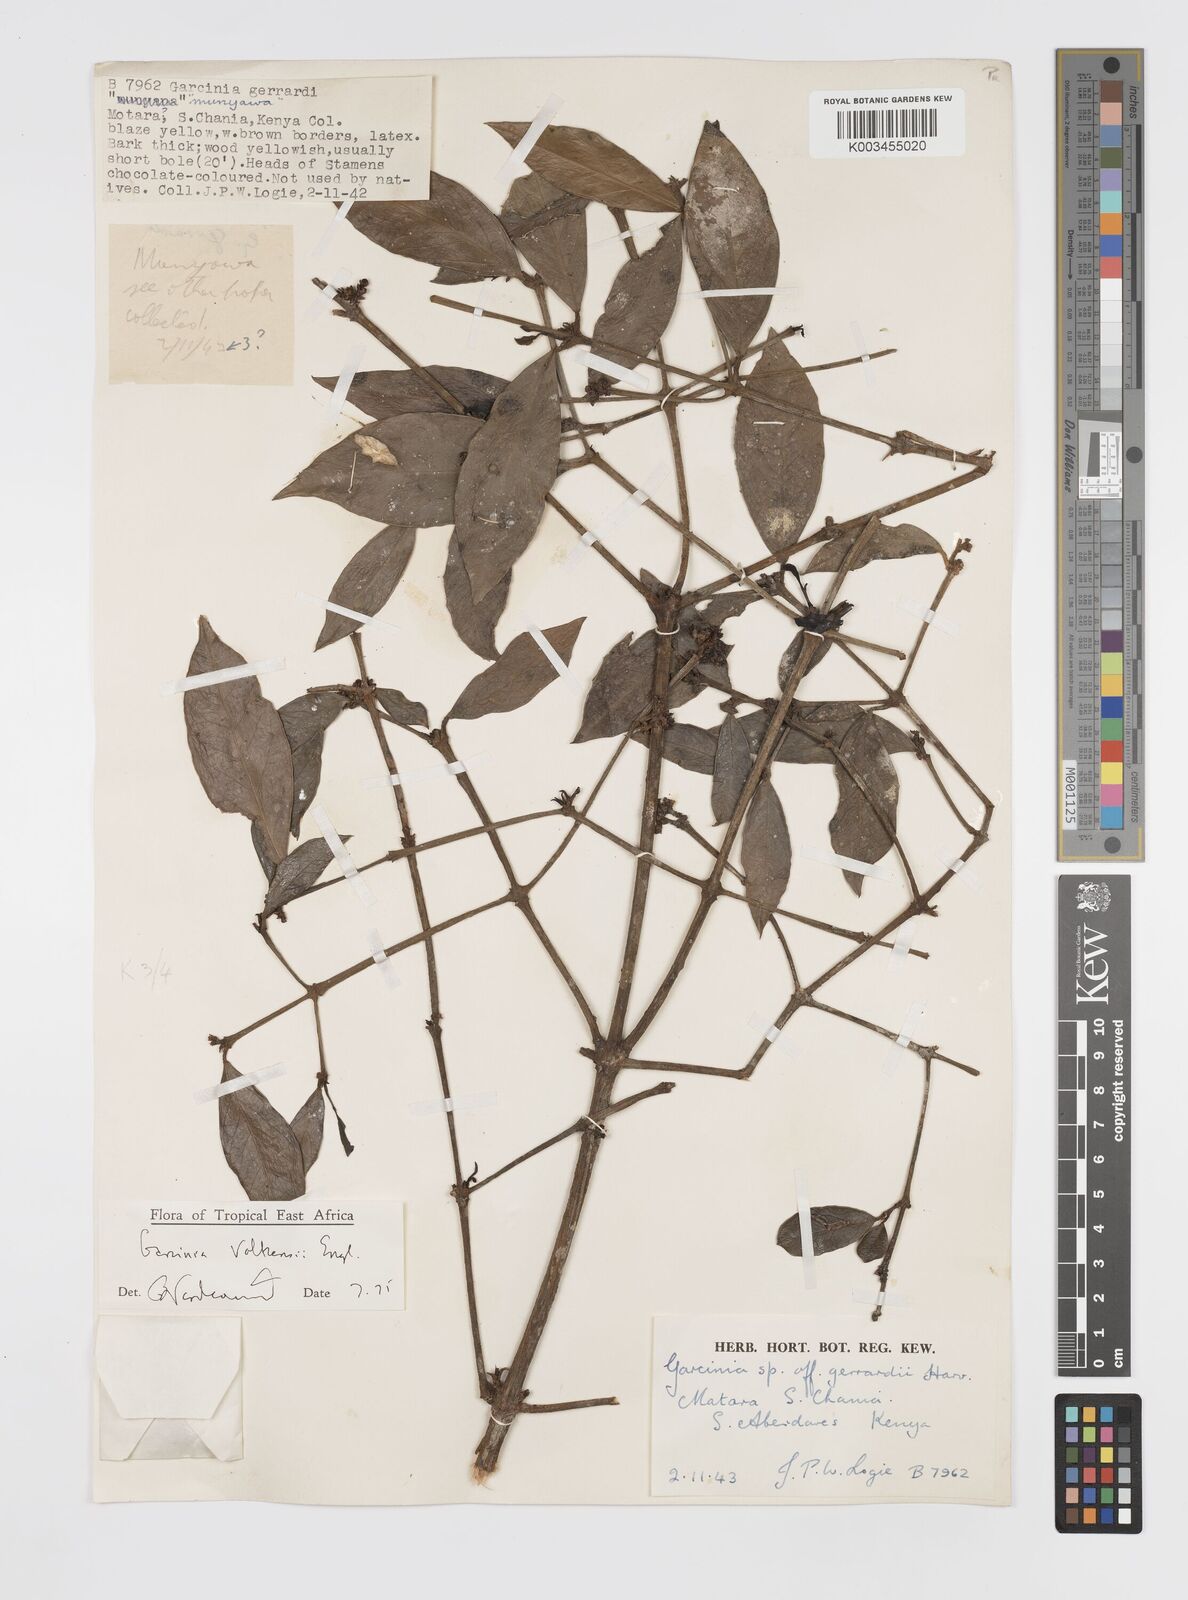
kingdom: Plantae
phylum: Tracheophyta
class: Magnoliopsida
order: Malpighiales
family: Clusiaceae
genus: Garcinia
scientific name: Garcinia volkensii
